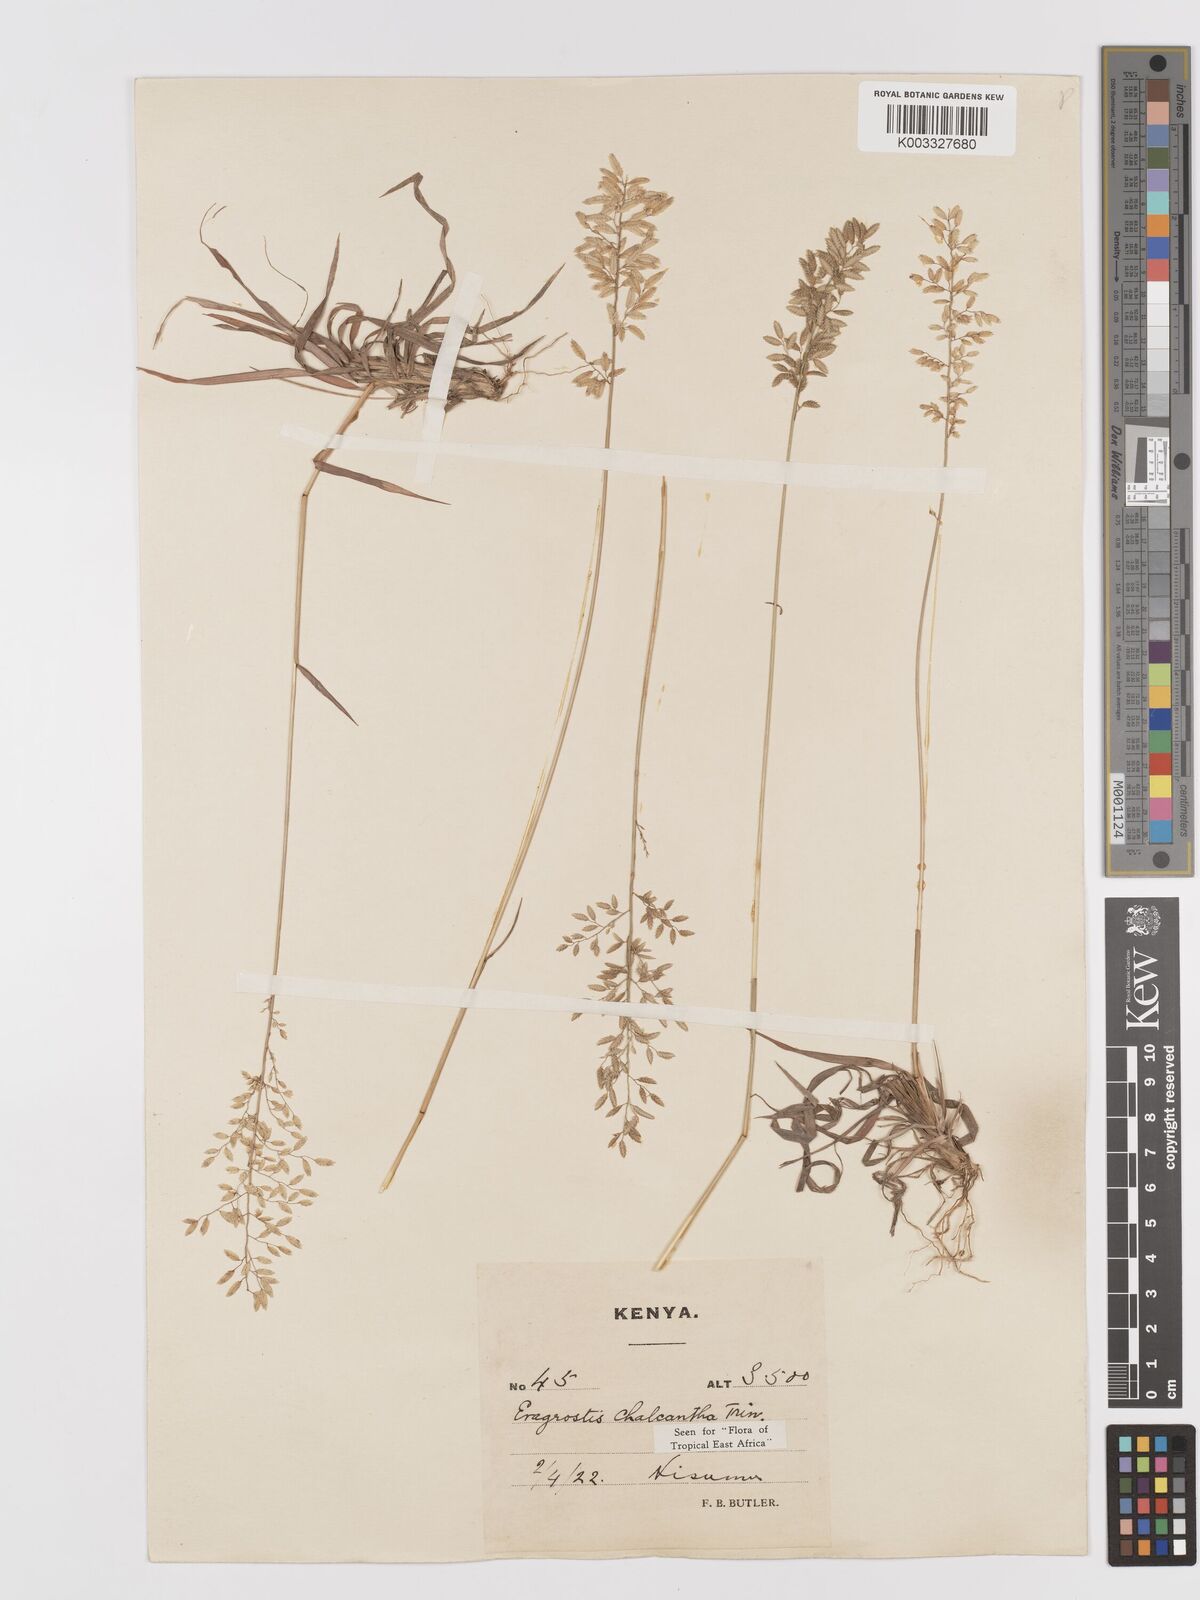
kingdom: Plantae
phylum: Tracheophyta
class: Liliopsida
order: Poales
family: Poaceae
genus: Eragrostis
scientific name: Eragrostis racemosa
